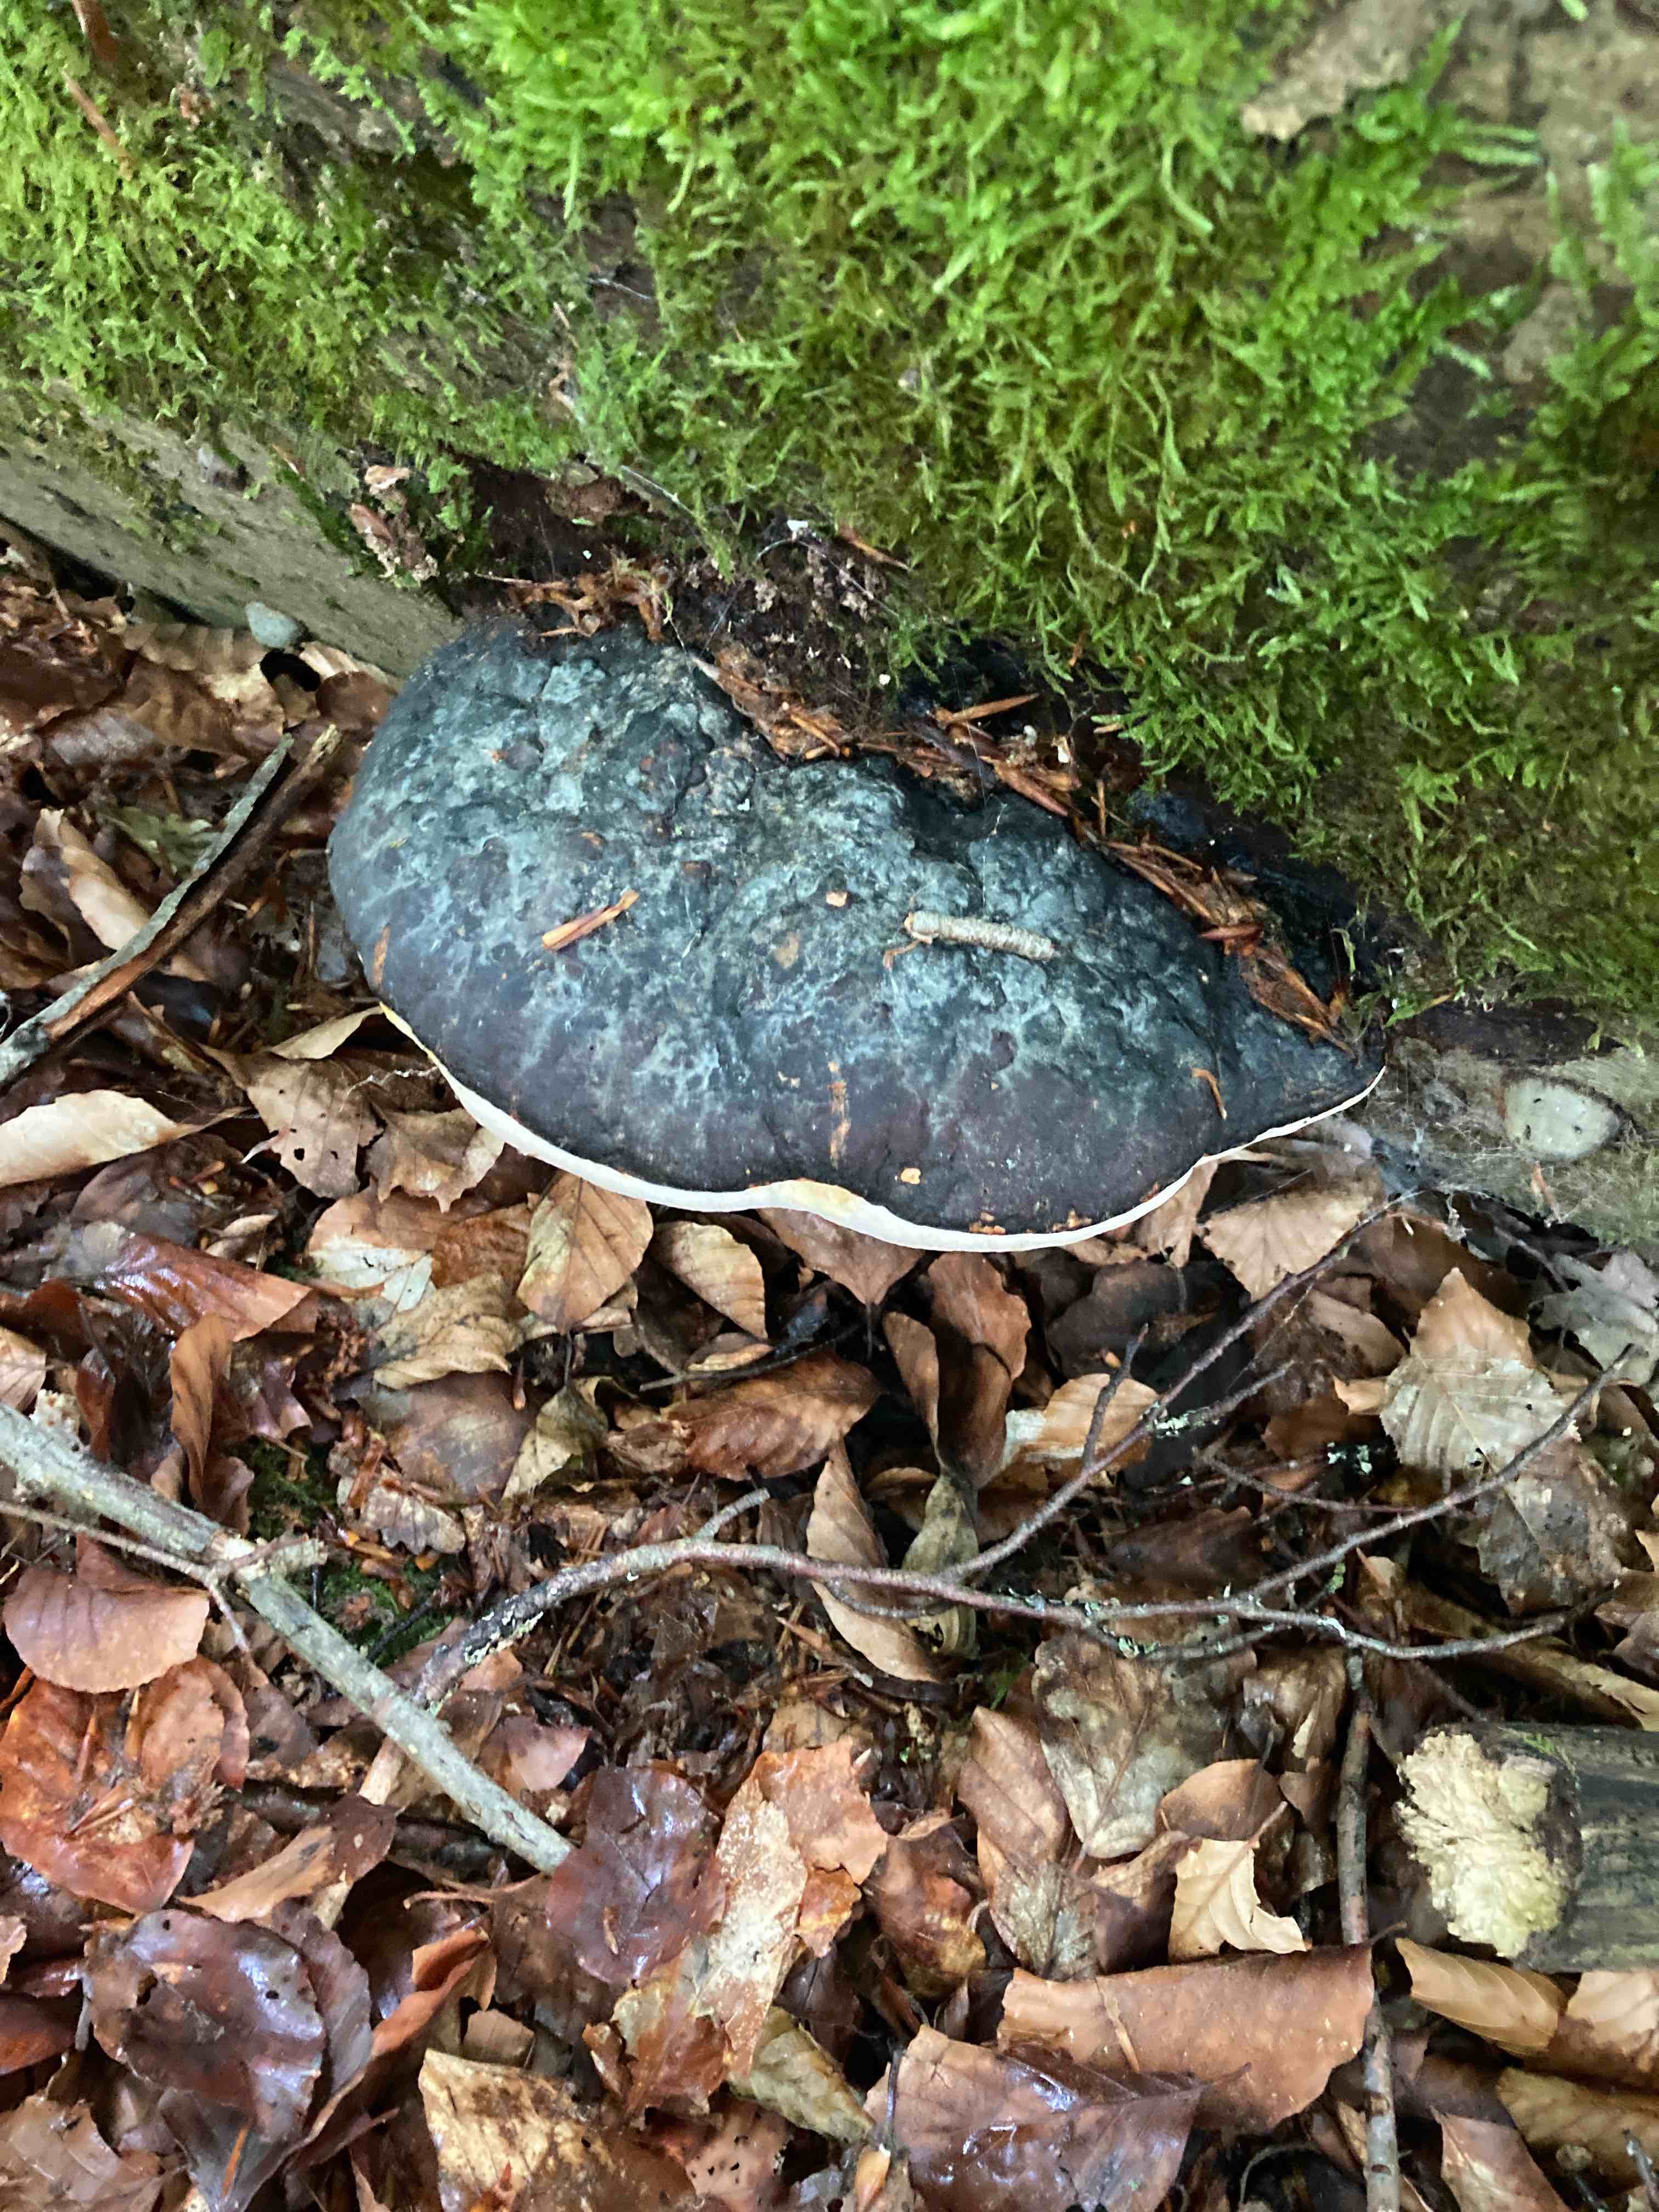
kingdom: Fungi
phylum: Basidiomycota
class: Agaricomycetes
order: Polyporales
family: Fomitopsidaceae
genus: Fomitopsis
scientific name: Fomitopsis pinicola
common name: randbæltet hovporesvamp
